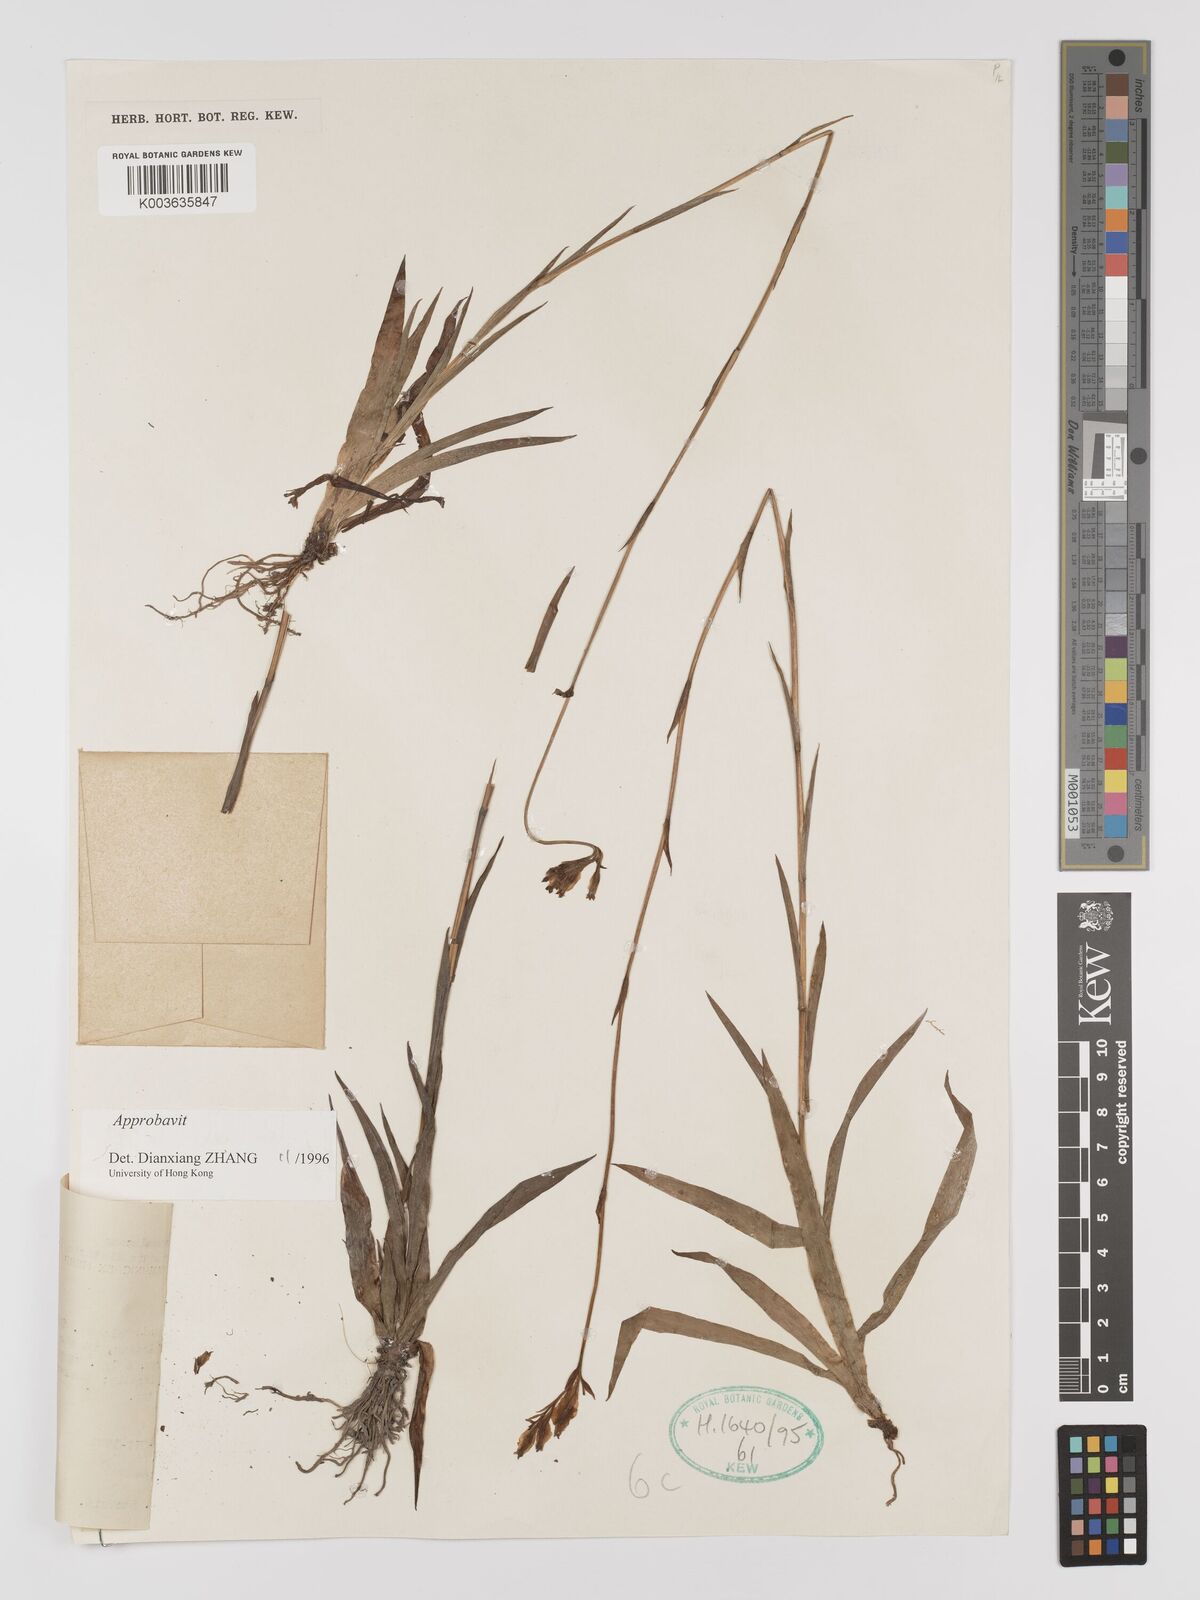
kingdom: Plantae
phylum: Tracheophyta
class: Liliopsida
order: Dioscoreales
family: Burmanniaceae
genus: Burmannia
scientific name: Burmannia disticha
